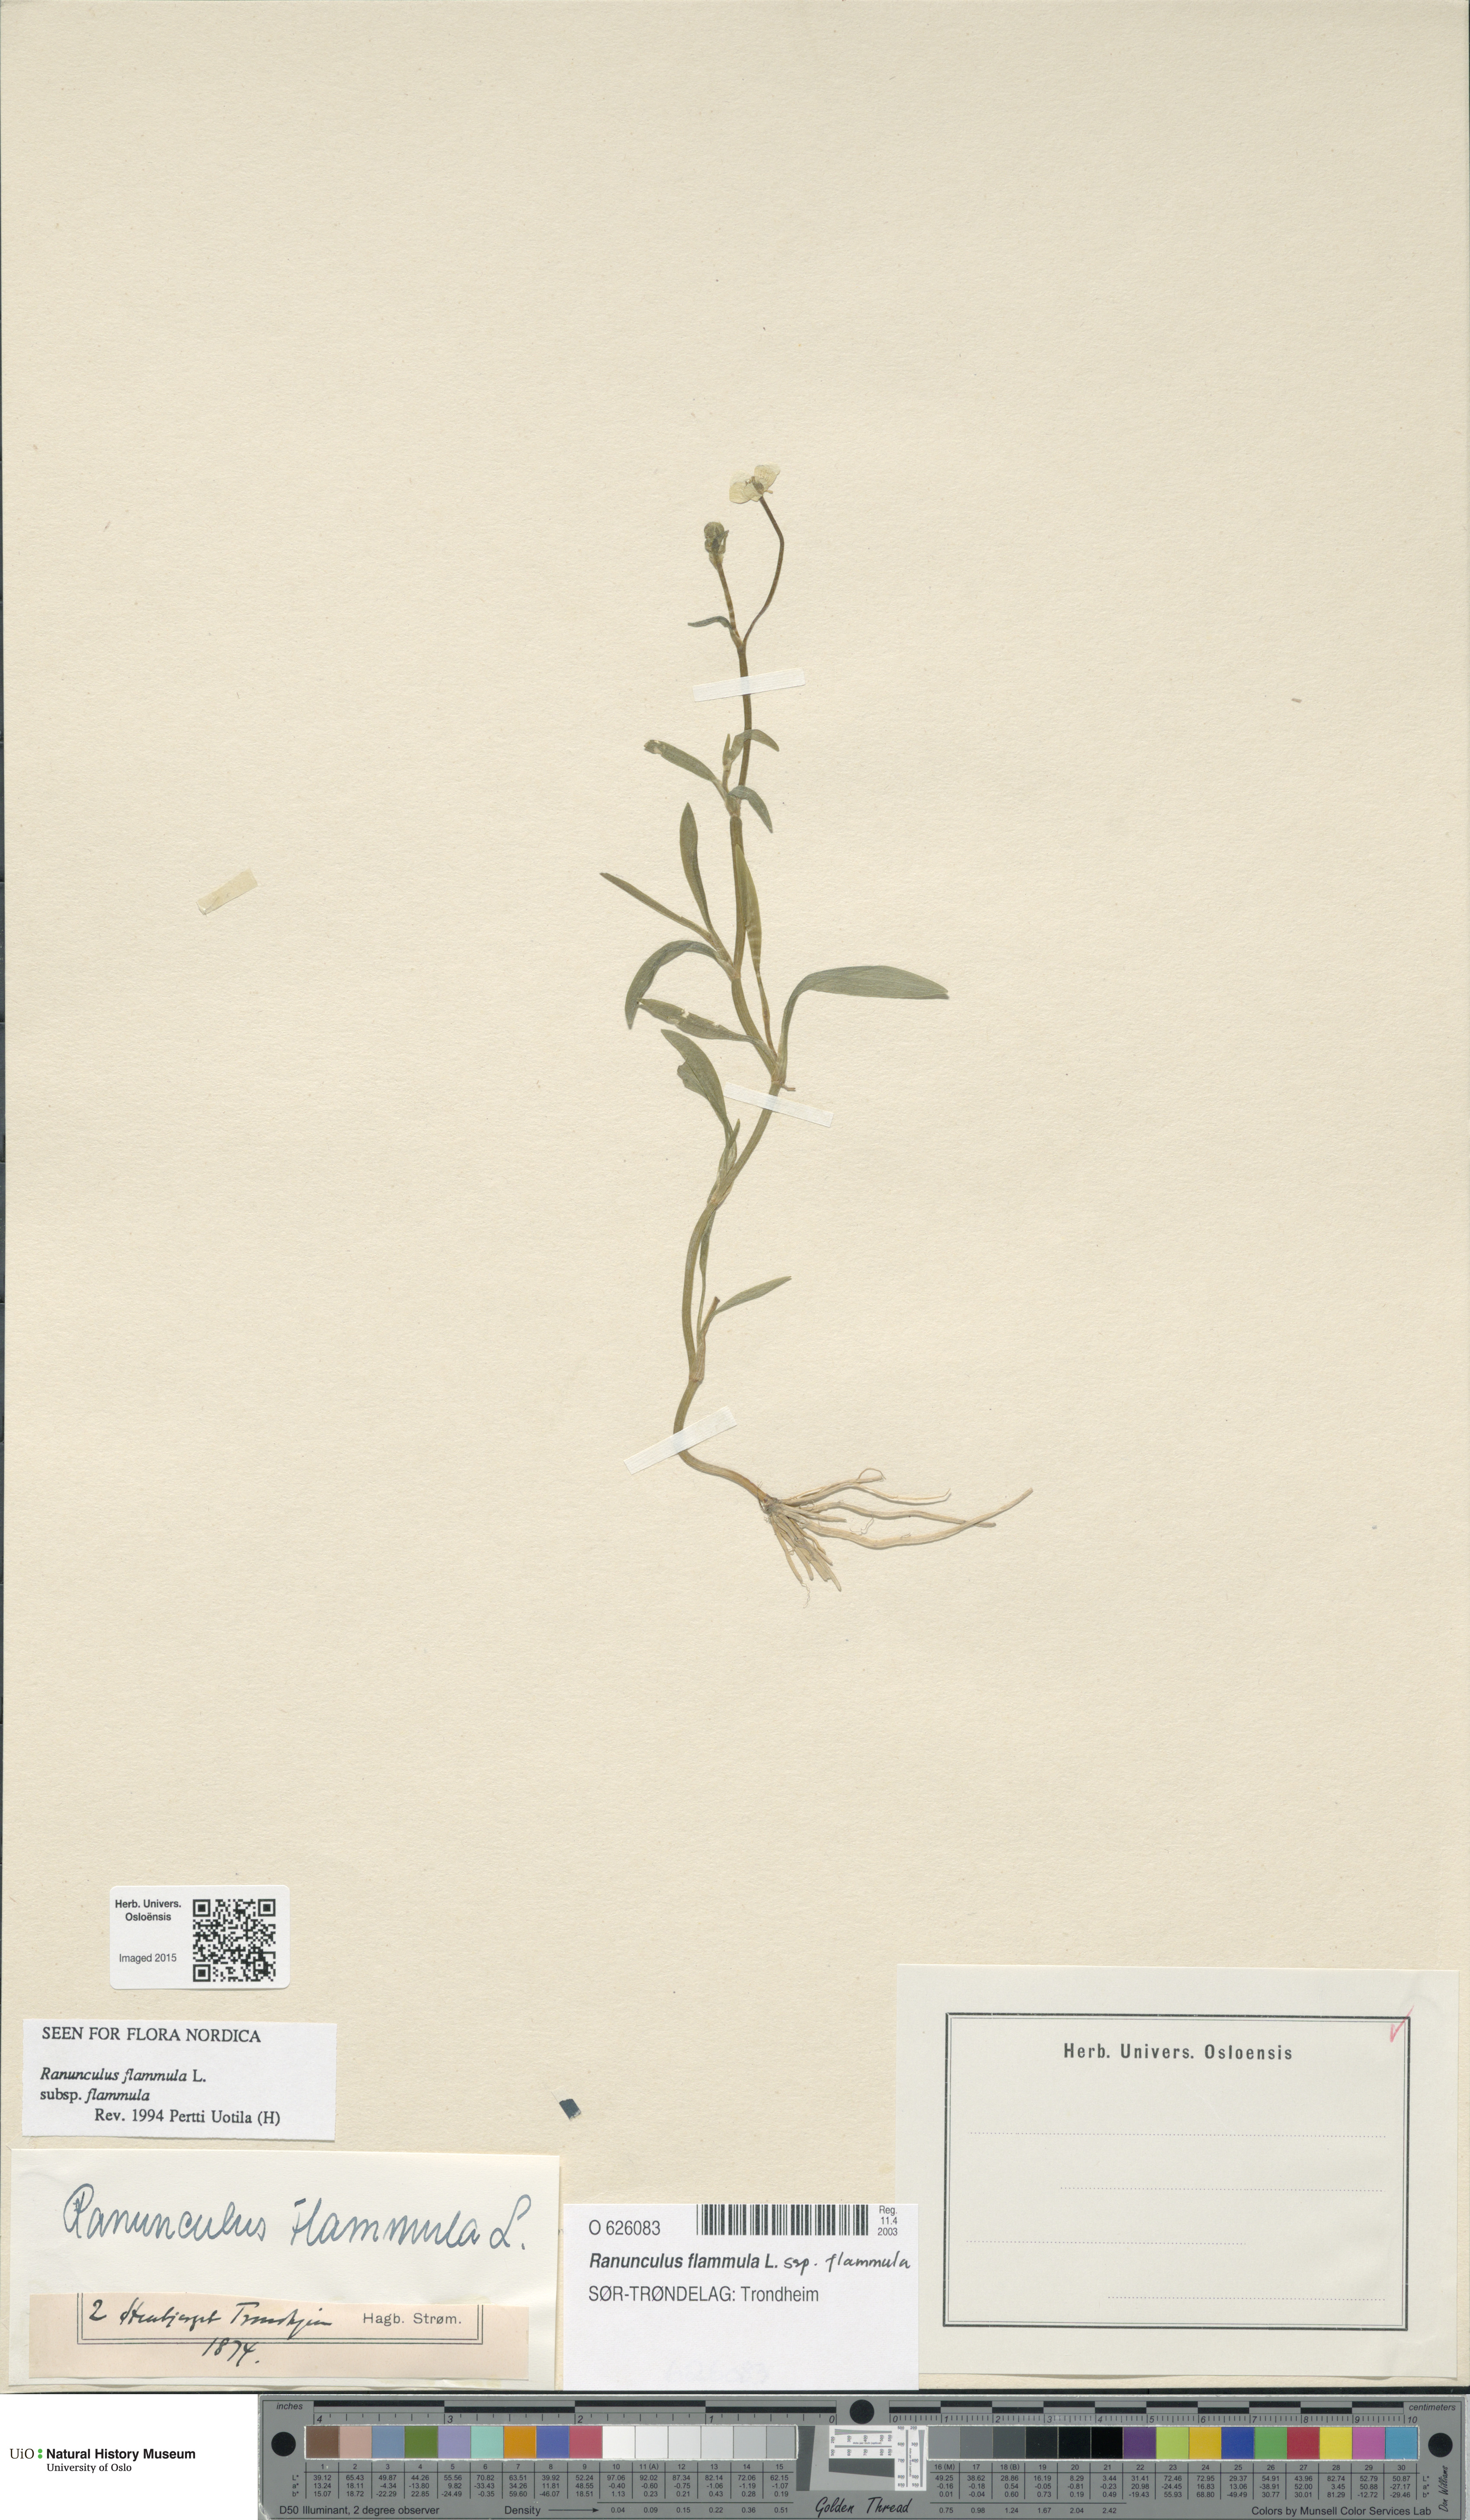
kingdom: Plantae
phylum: Tracheophyta
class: Magnoliopsida
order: Ranunculales
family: Ranunculaceae
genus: Ranunculus
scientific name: Ranunculus flammula
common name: Lesser spearwort
